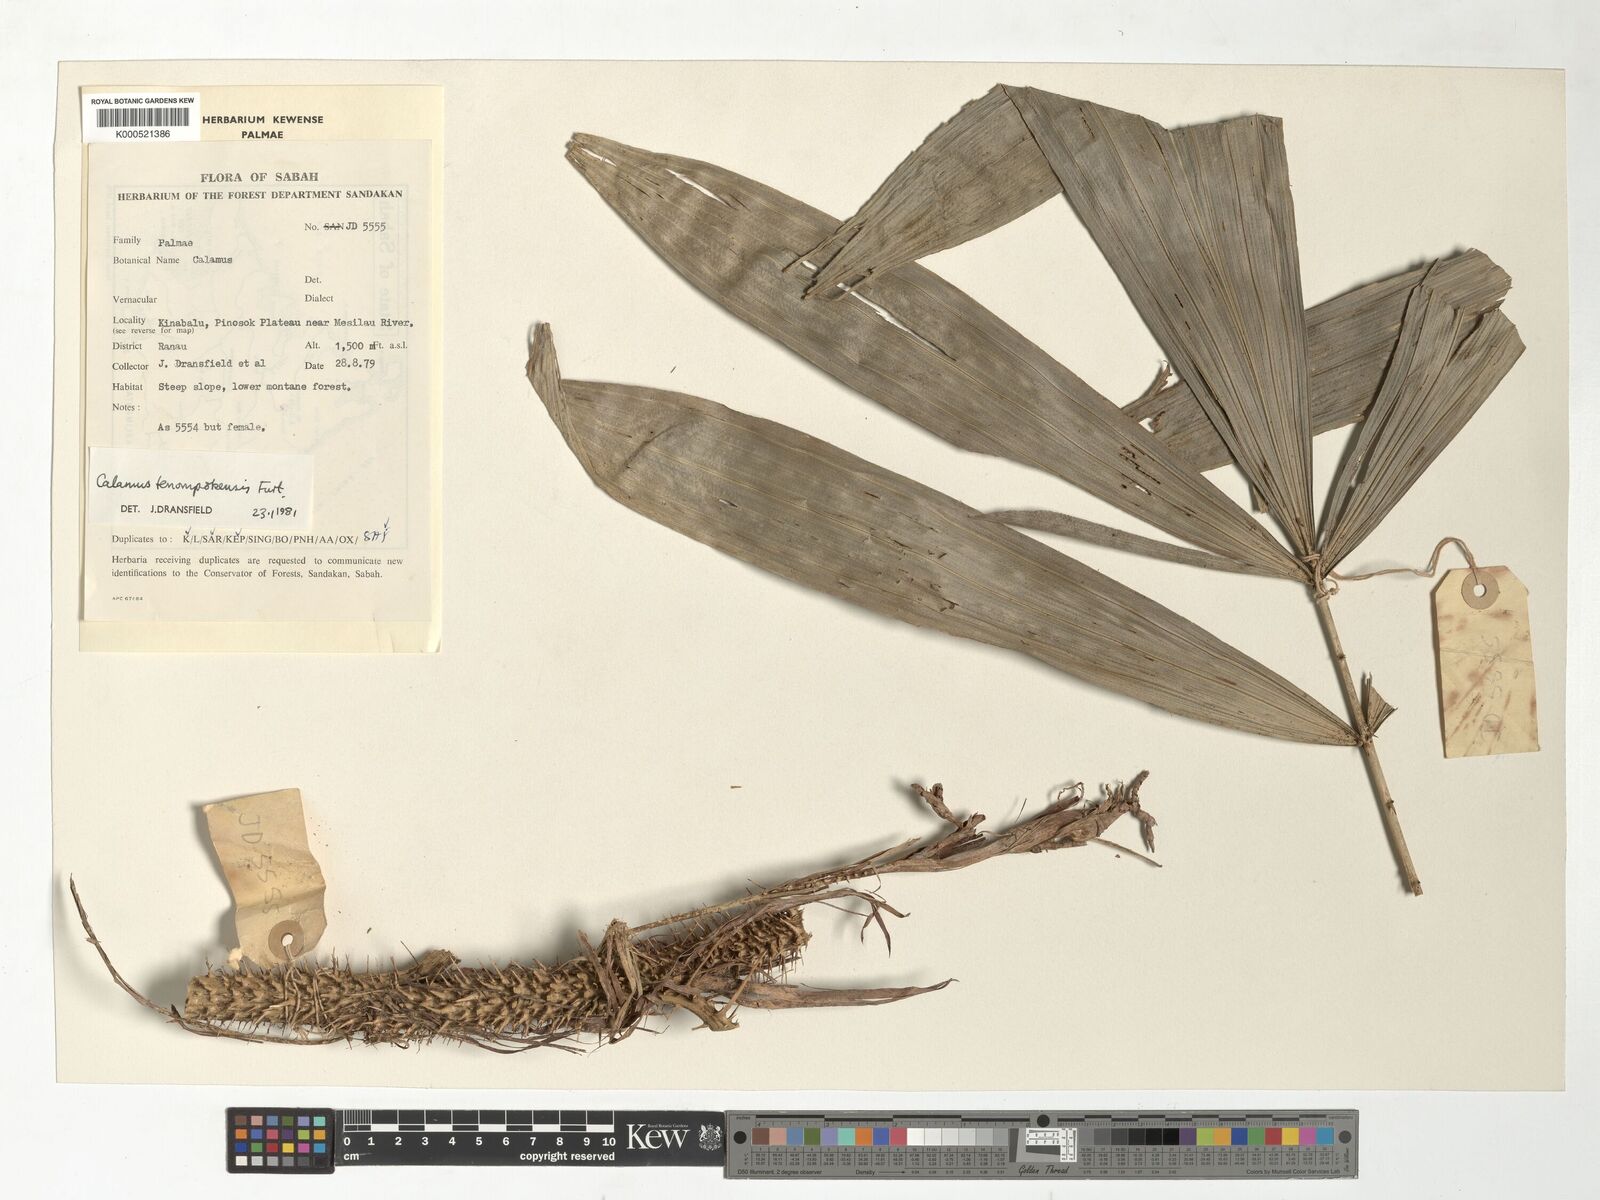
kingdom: Plantae
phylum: Tracheophyta
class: Liliopsida
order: Arecales
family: Arecaceae
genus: Calamus
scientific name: Calamus tenompokensis
